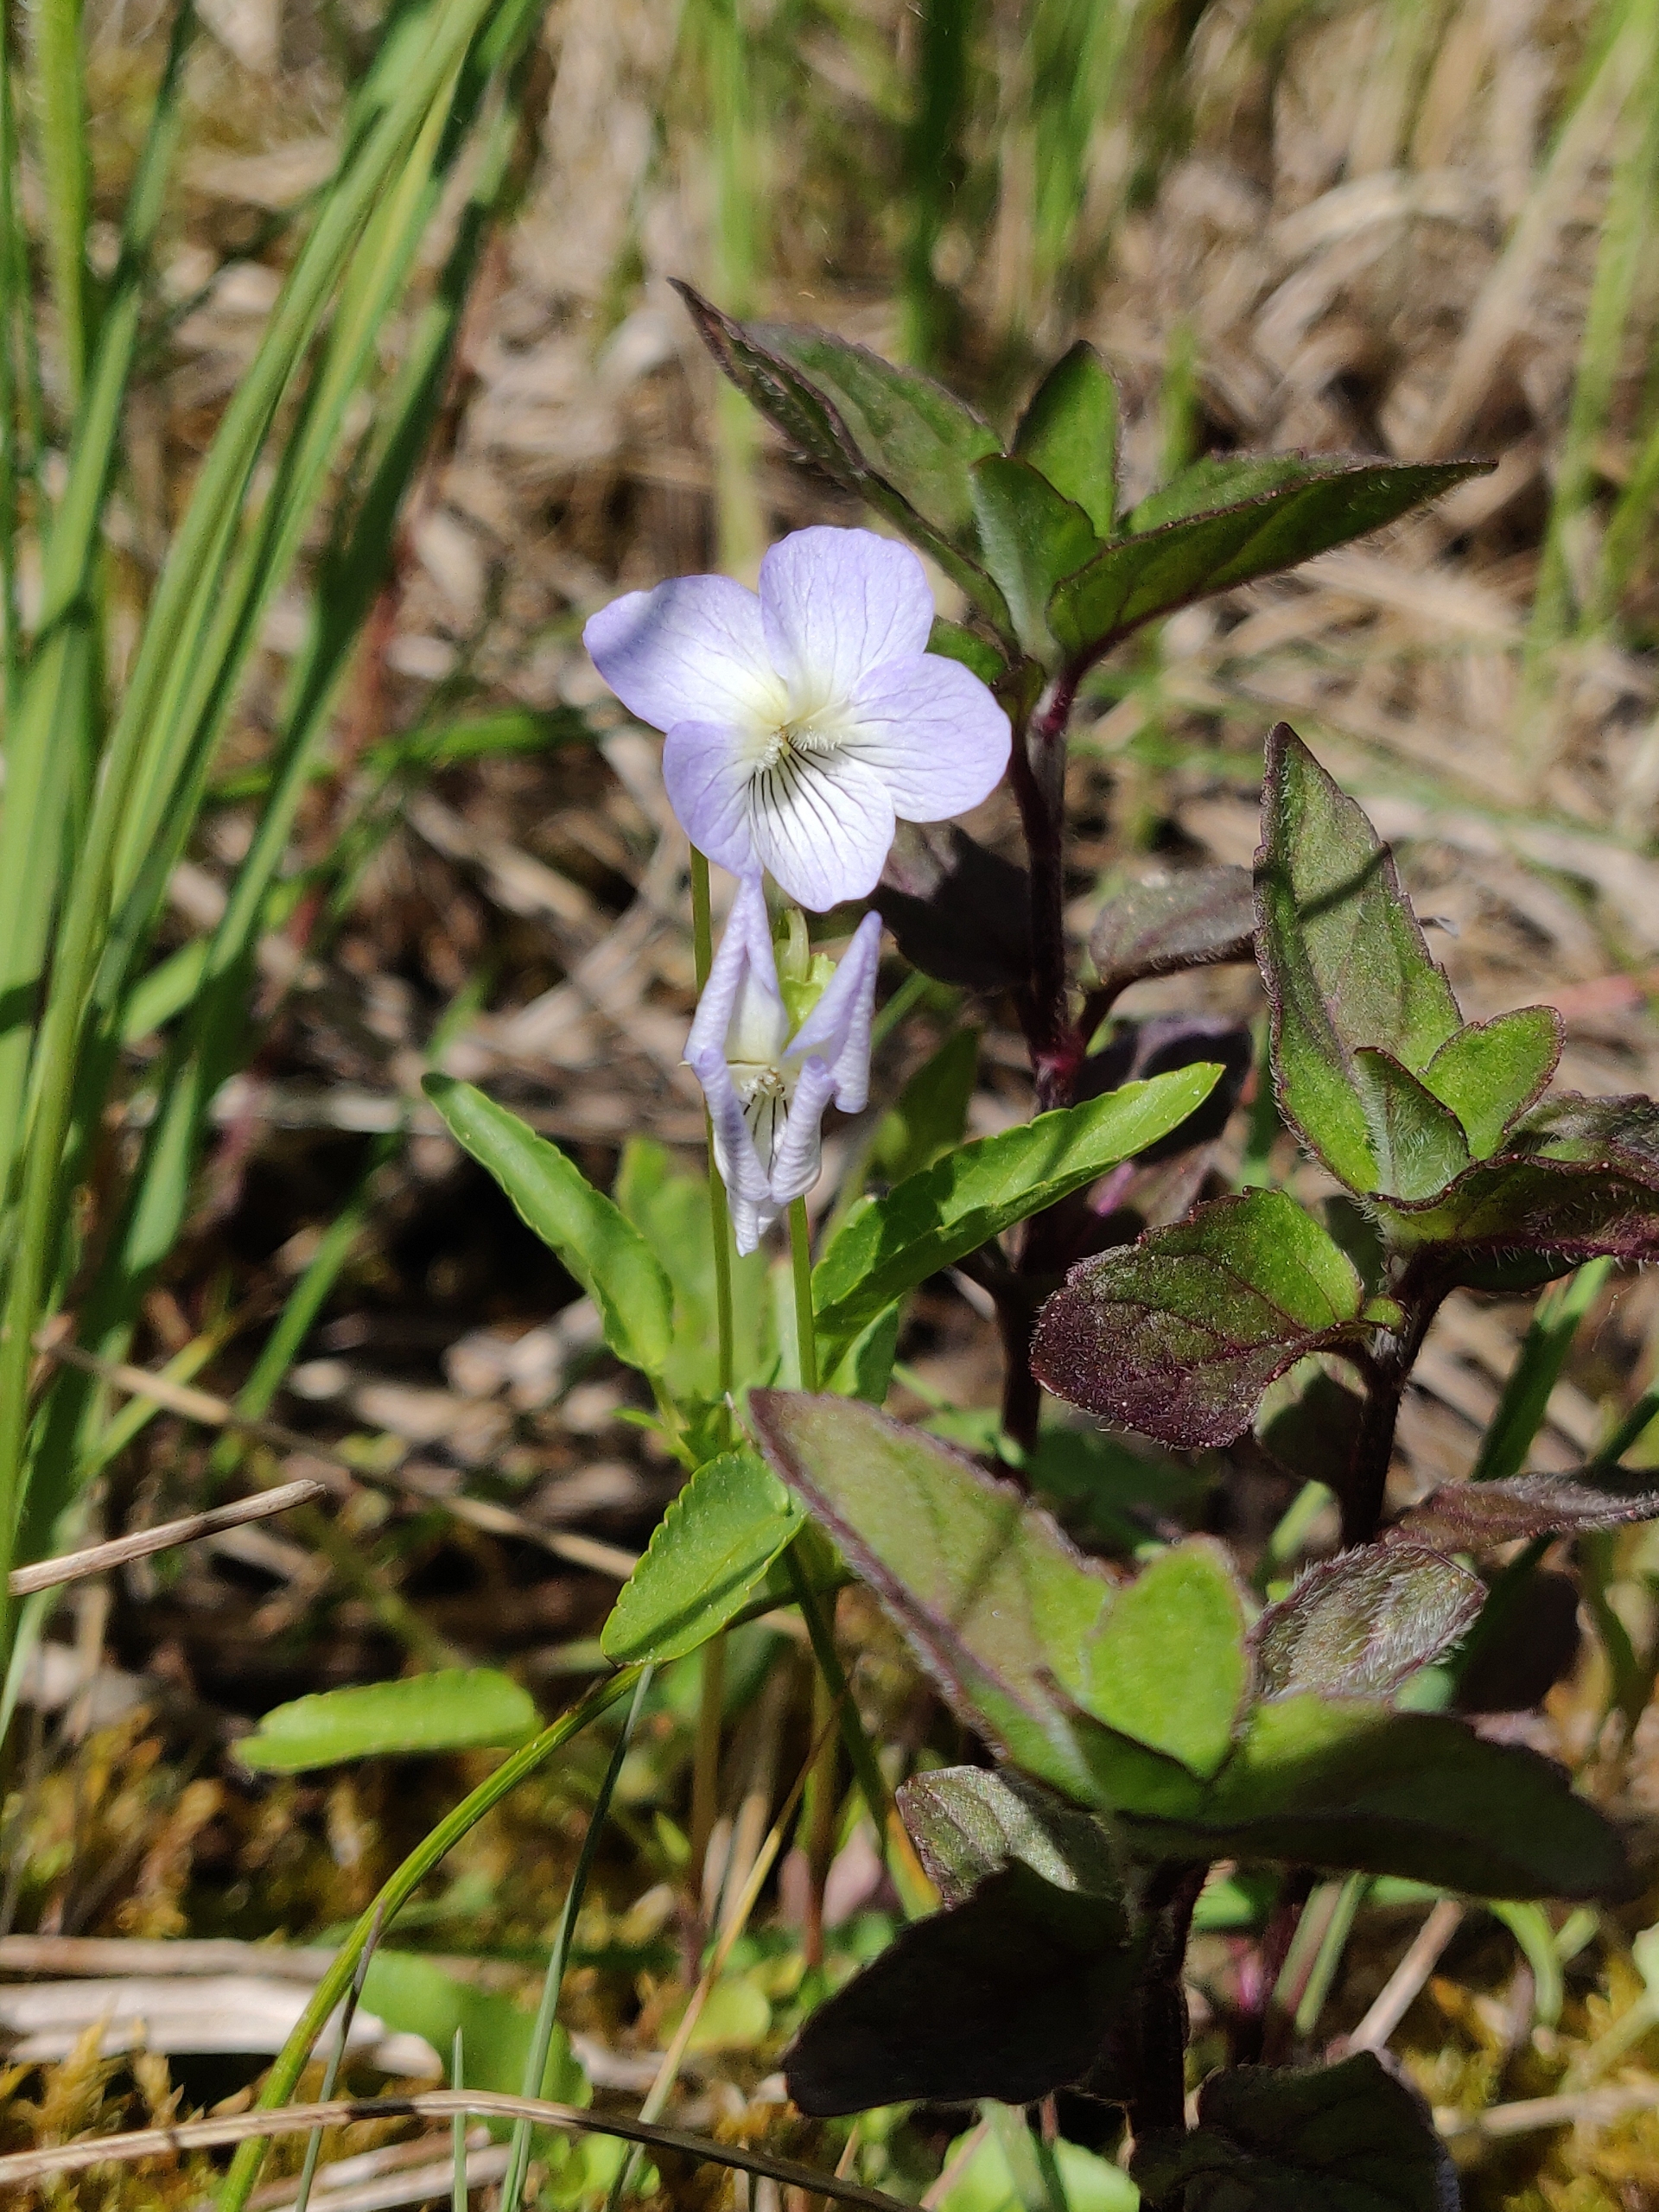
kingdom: Plantae
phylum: Tracheophyta
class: Magnoliopsida
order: Malpighiales
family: Violaceae
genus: Viola
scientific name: Viola stagnina
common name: Rank viol
